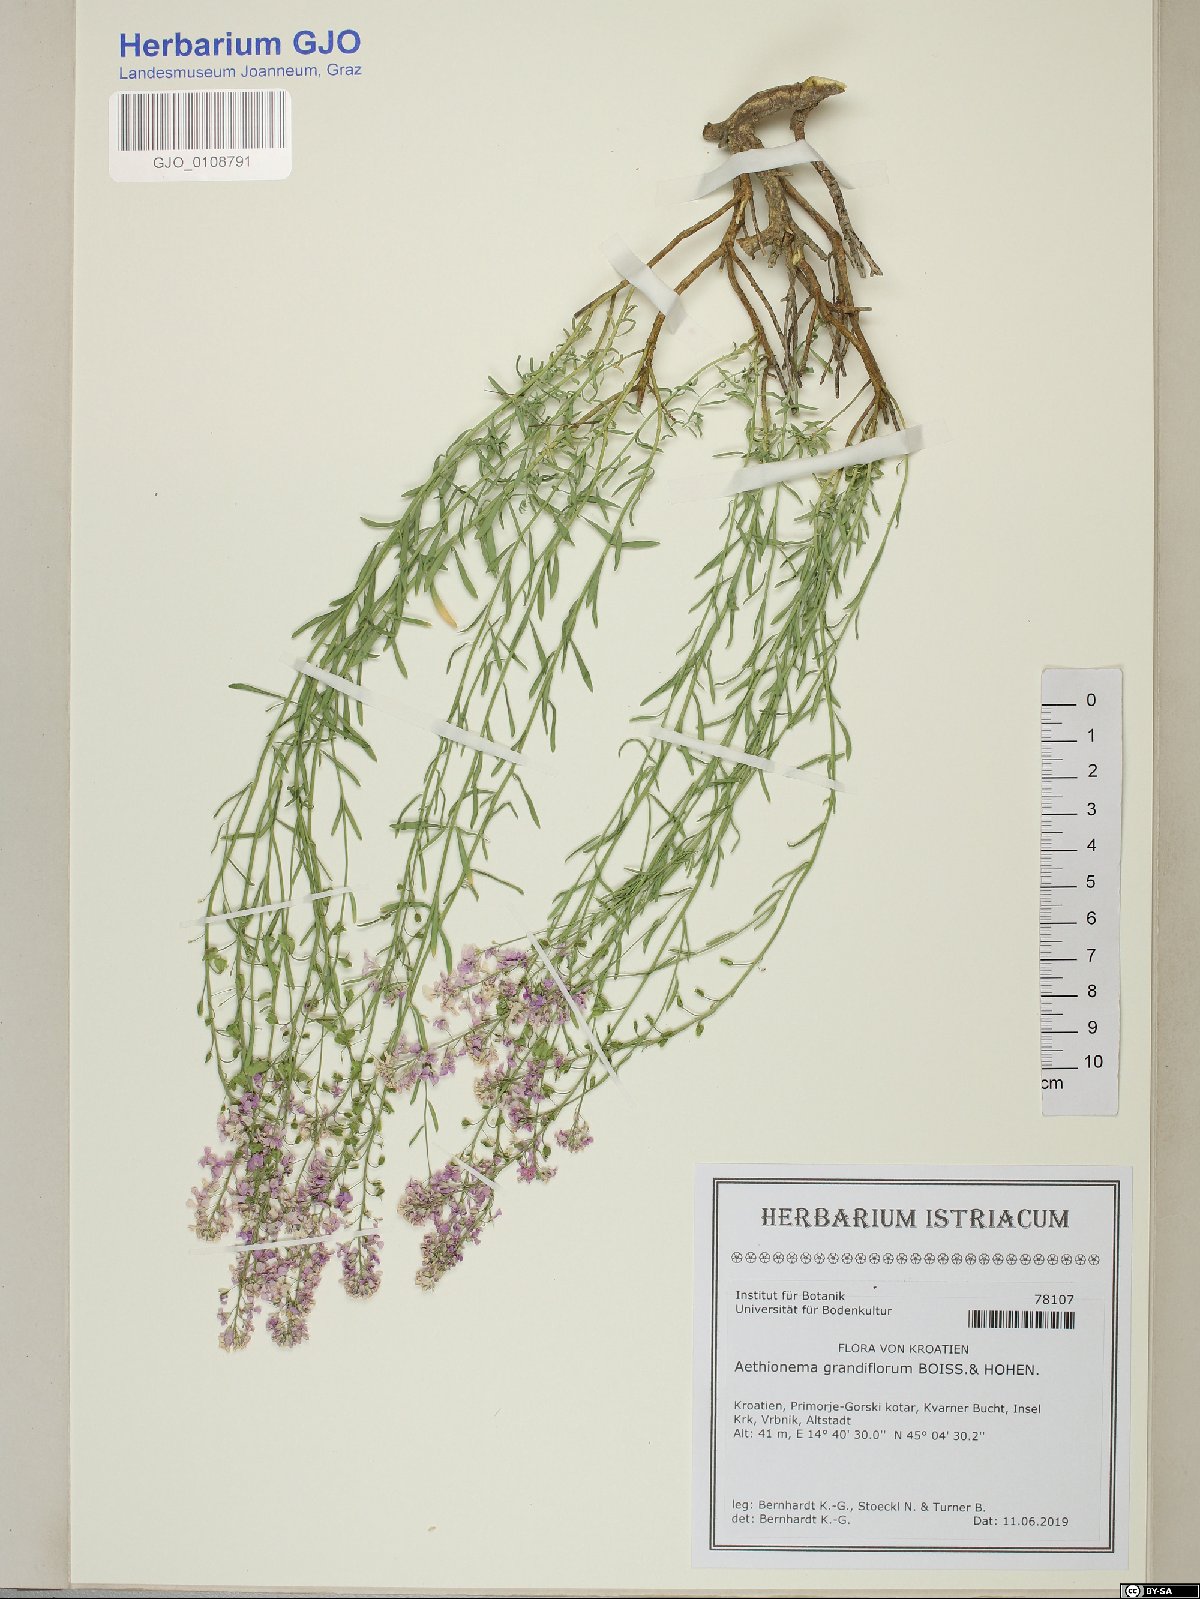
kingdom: Plantae
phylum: Tracheophyta
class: Magnoliopsida
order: Brassicales
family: Brassicaceae
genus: Aethionema
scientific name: Aethionema grandiflorum
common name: Persian stonecress
